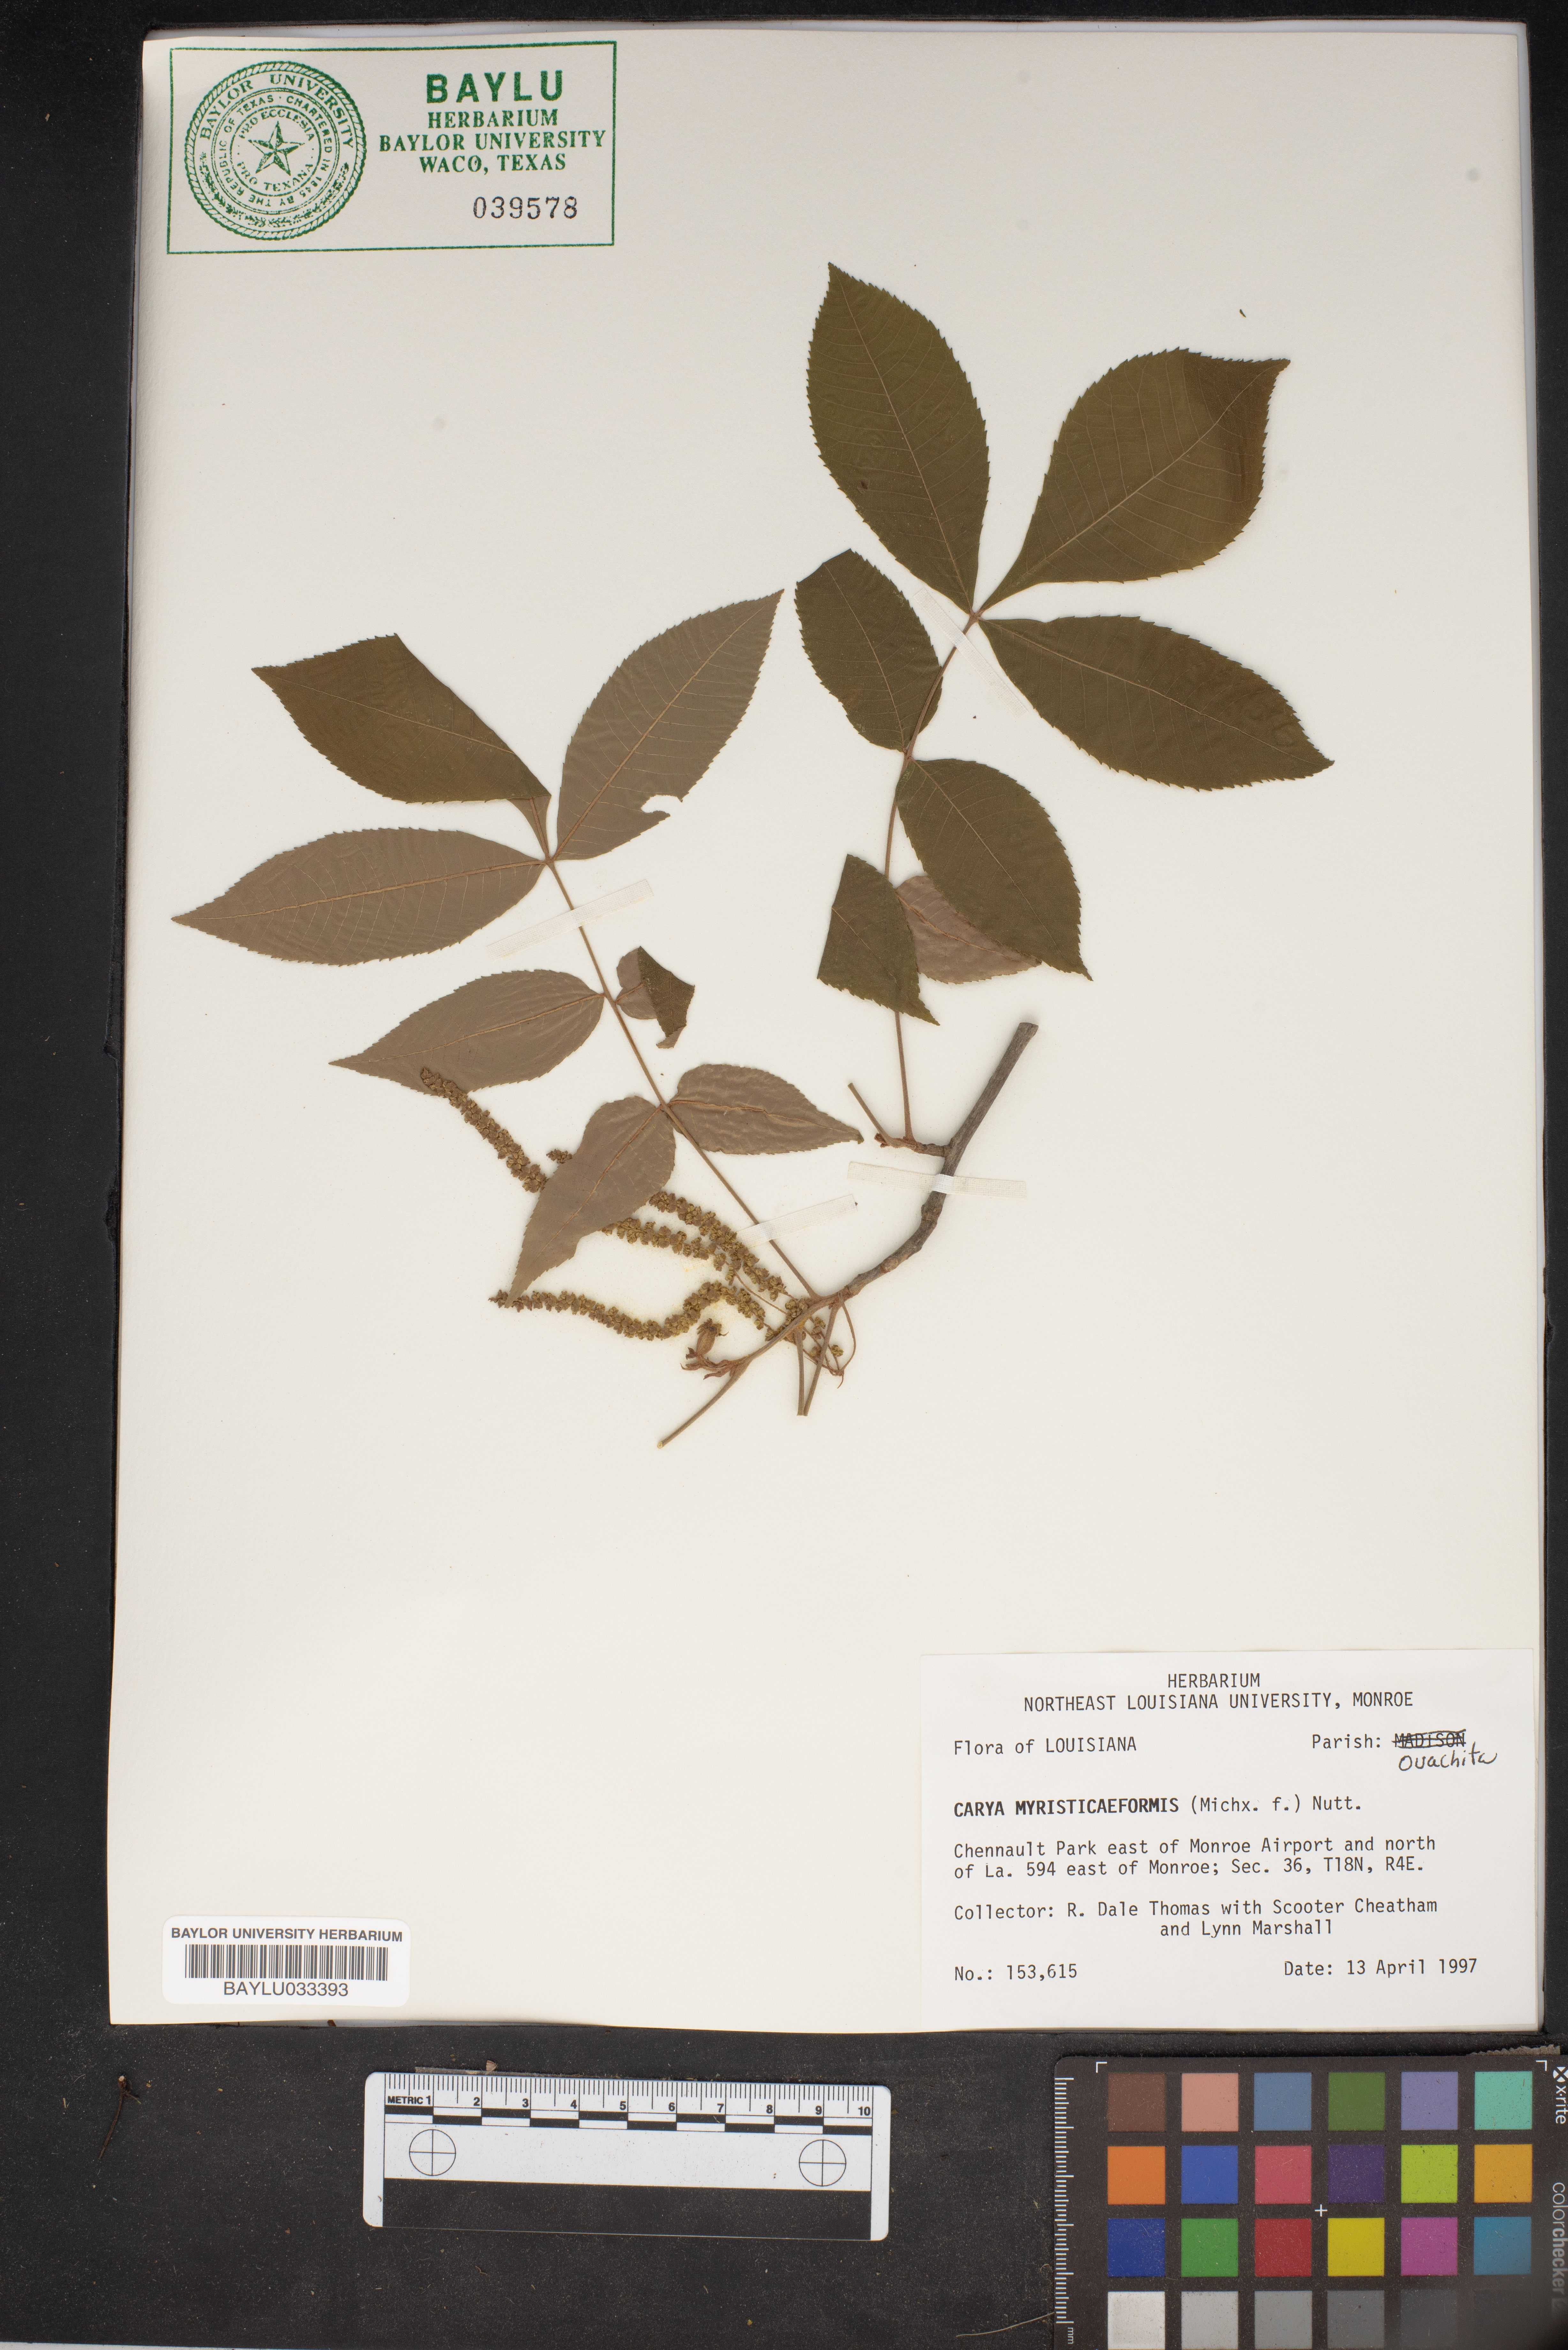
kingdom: Plantae
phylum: Tracheophyta
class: Magnoliopsida
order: Fagales
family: Juglandaceae
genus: Carya
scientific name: Carya myristiciformis
